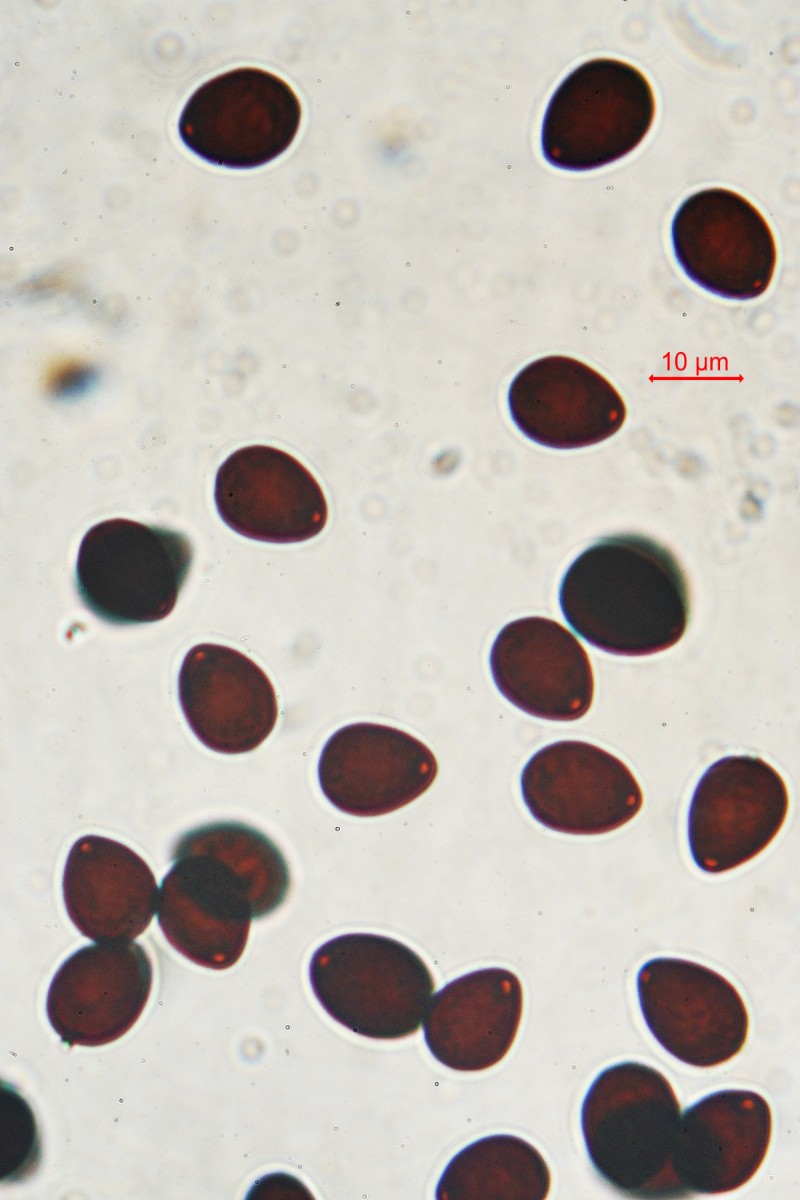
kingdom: Fungi
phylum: Basidiomycota
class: Agaricomycetes
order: Agaricales
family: Psathyrellaceae
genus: Parasola
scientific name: Parasola schroeteri
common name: bredsporet hjulhat
